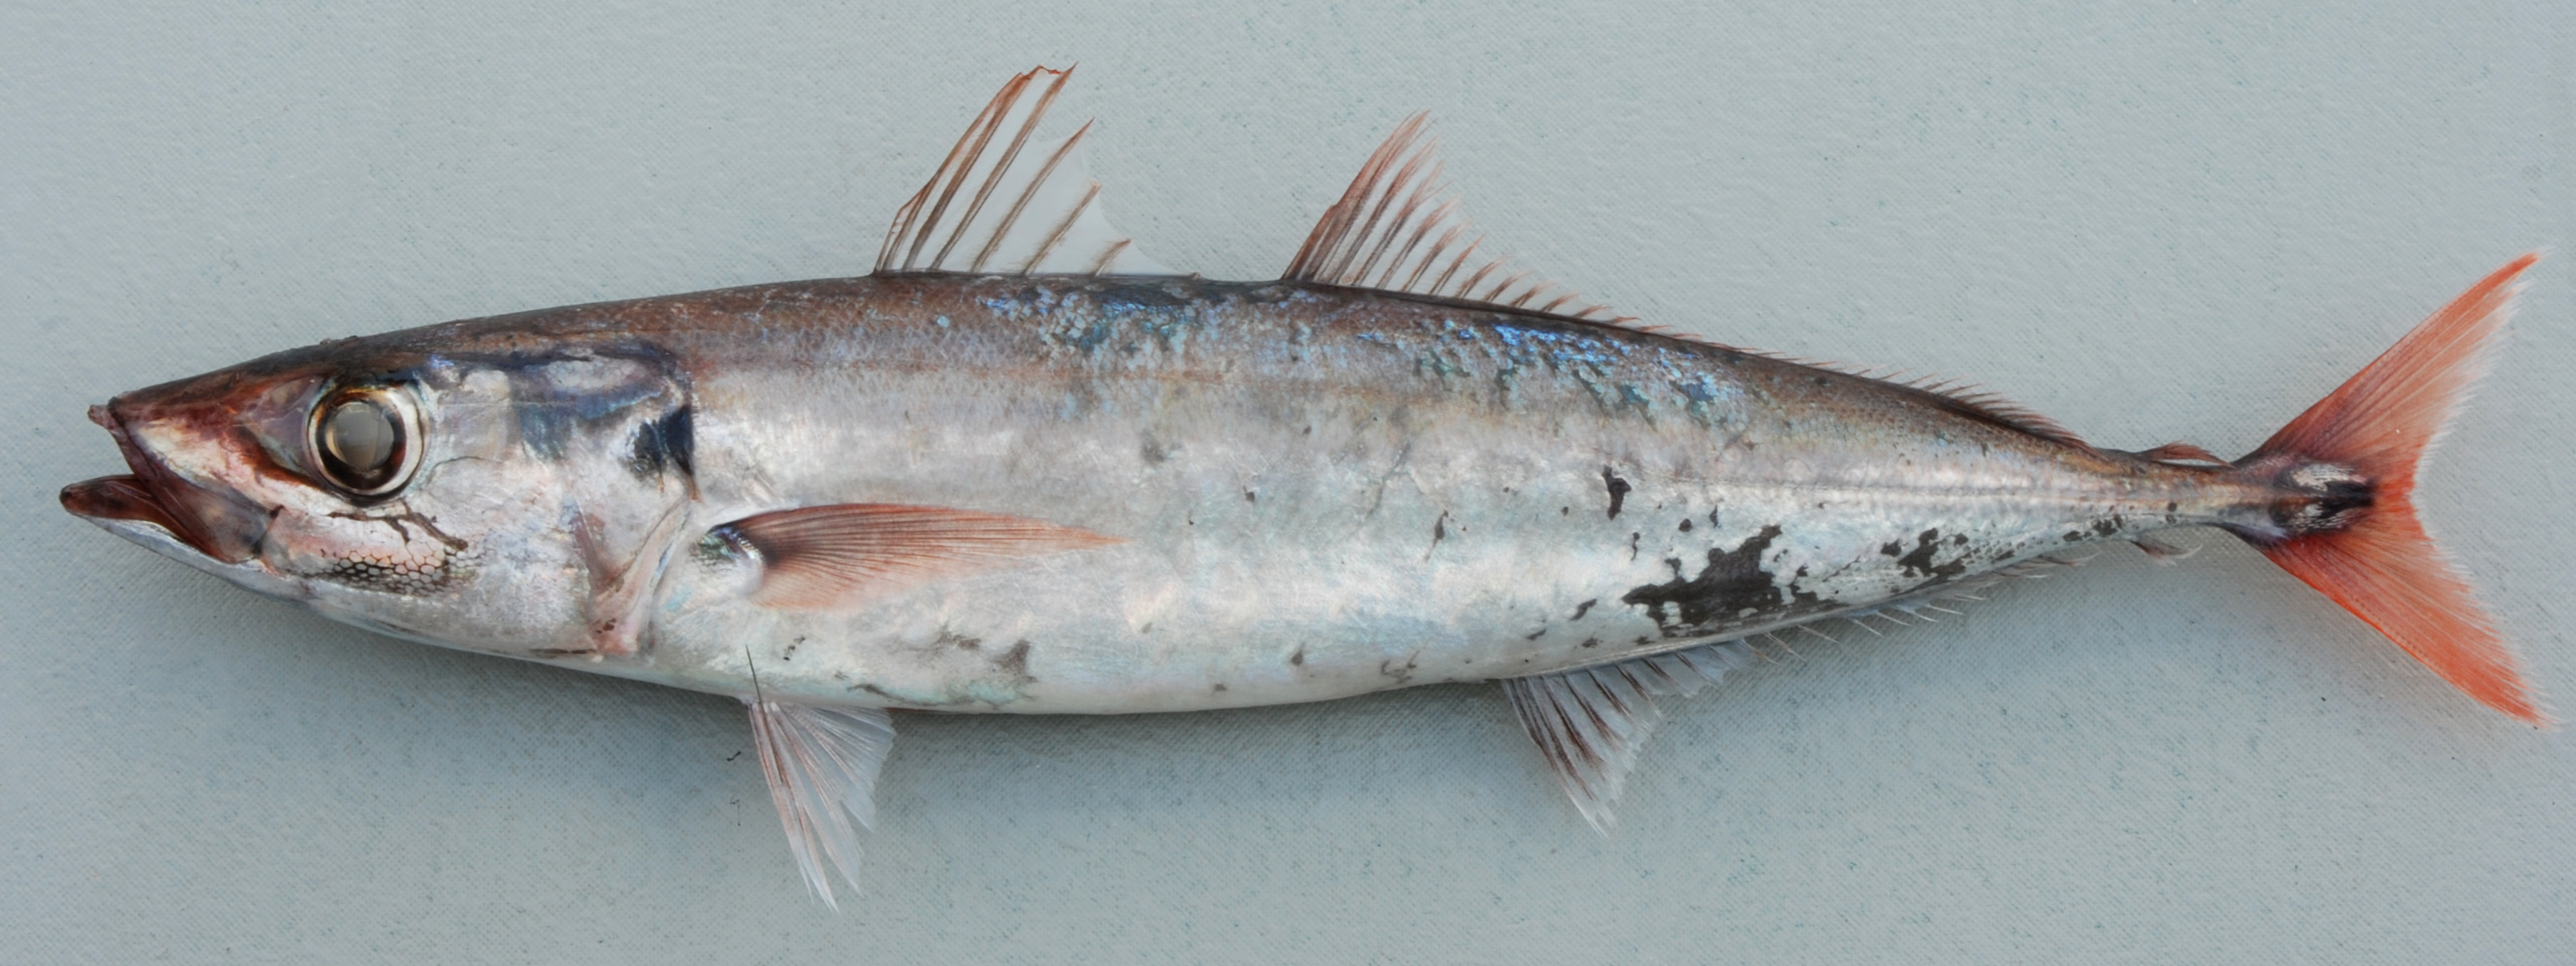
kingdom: Animalia
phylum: Chordata
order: Perciformes
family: Carangidae
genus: Decapterus
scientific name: Decapterus tabl
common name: Roughear scad
